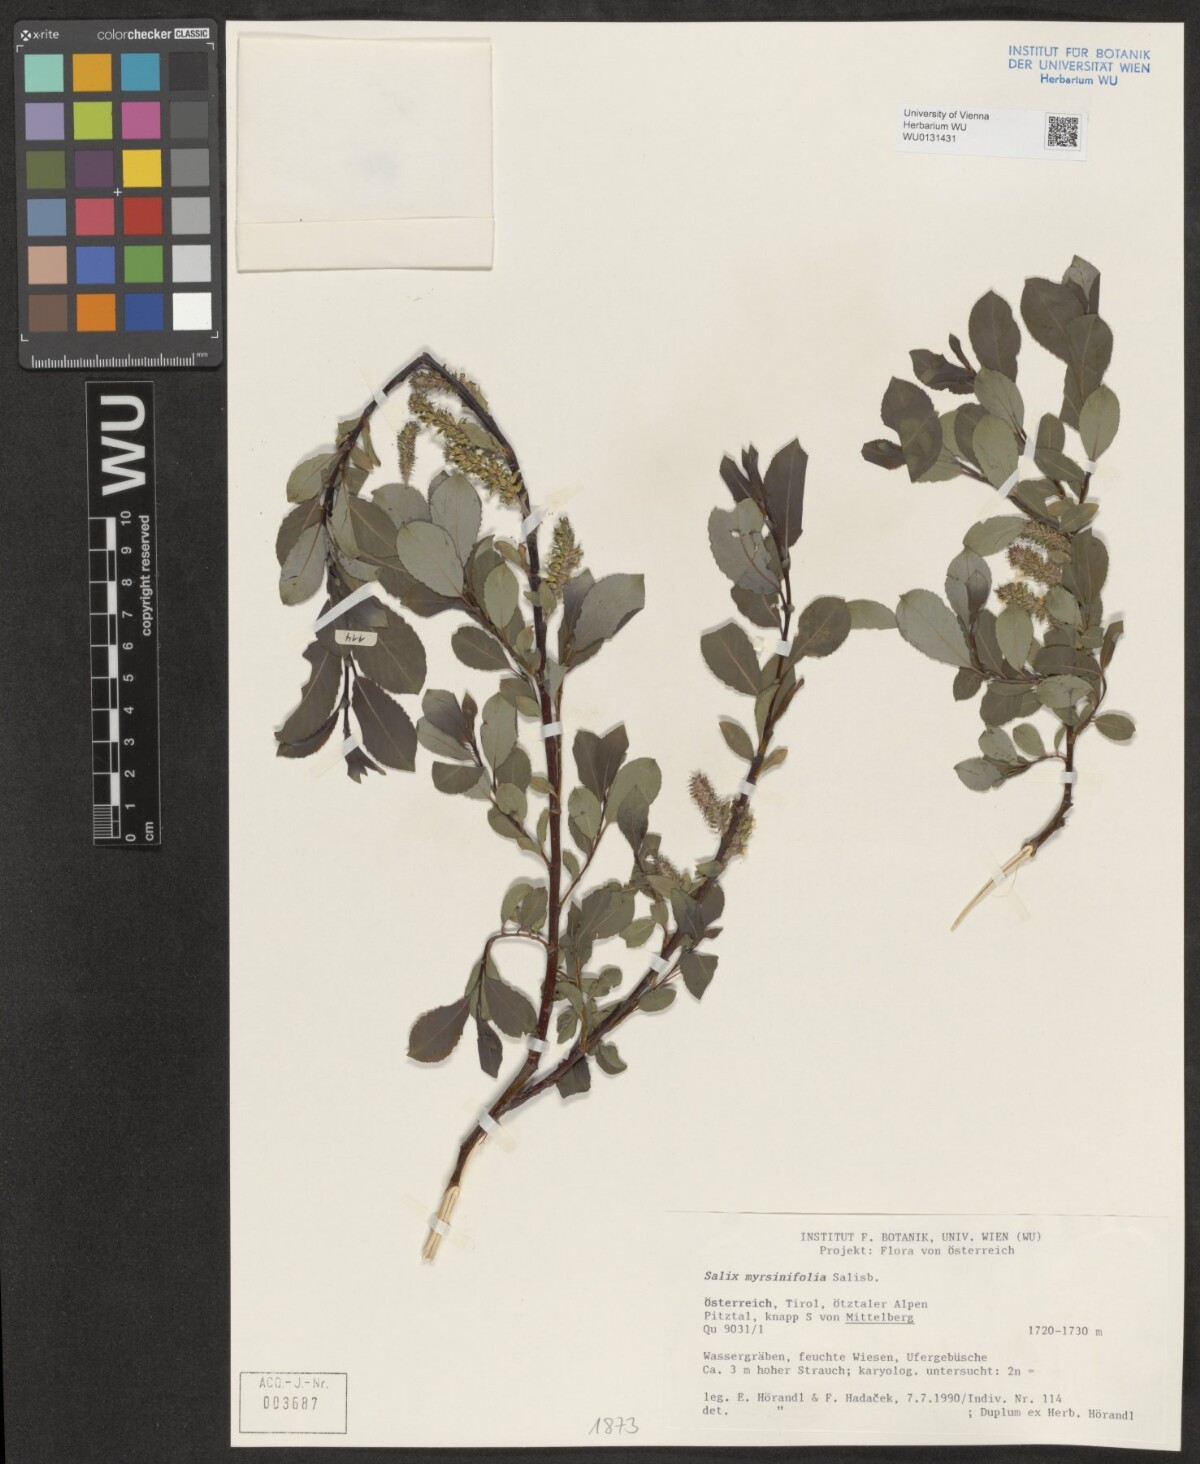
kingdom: Plantae
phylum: Tracheophyta
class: Magnoliopsida
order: Malpighiales
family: Salicaceae
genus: Salix
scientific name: Salix myrsinifolia
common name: Dark-leaved willow
